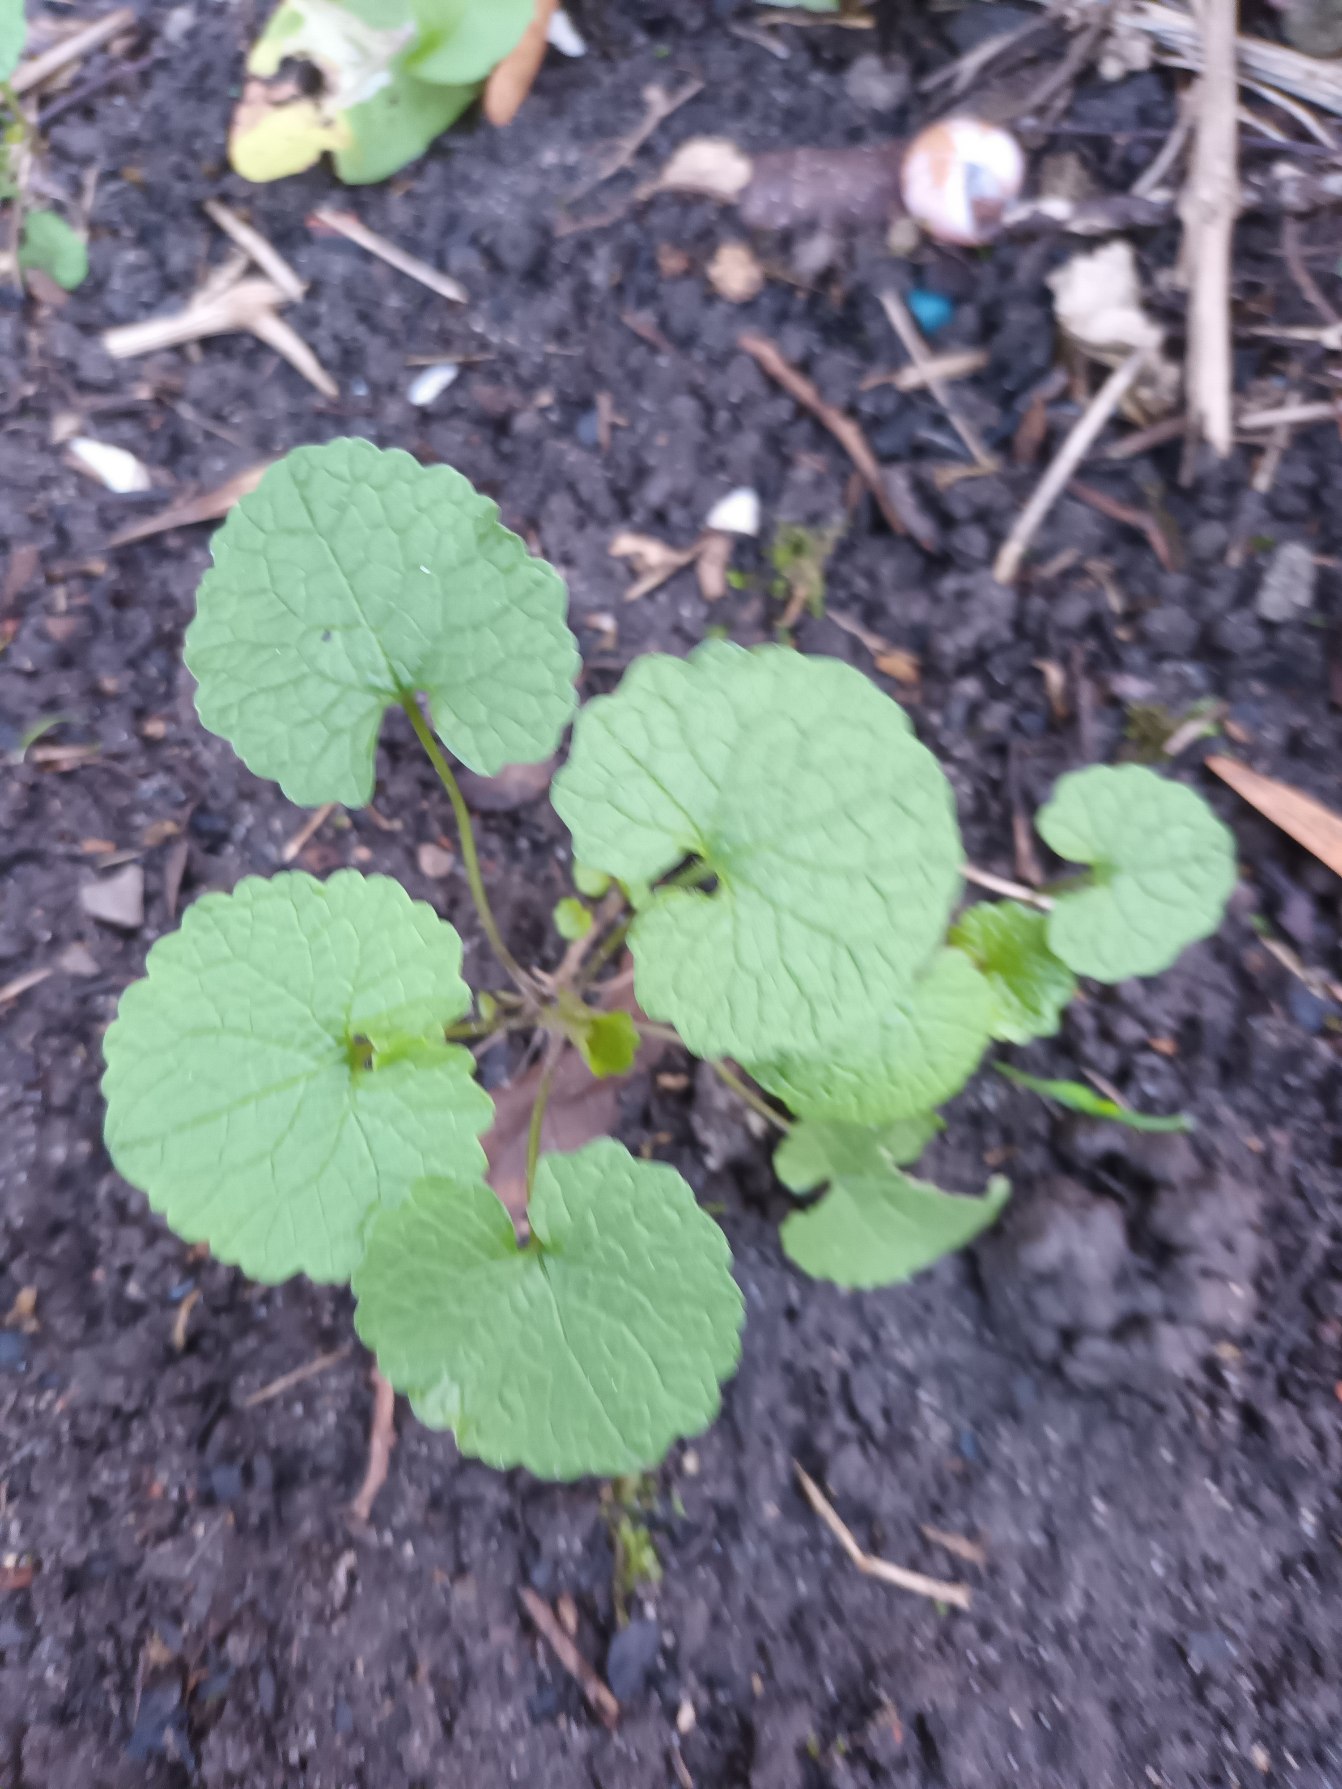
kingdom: Plantae
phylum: Tracheophyta
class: Magnoliopsida
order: Brassicales
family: Brassicaceae
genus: Alliaria
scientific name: Alliaria petiolata
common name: Løgkarse
